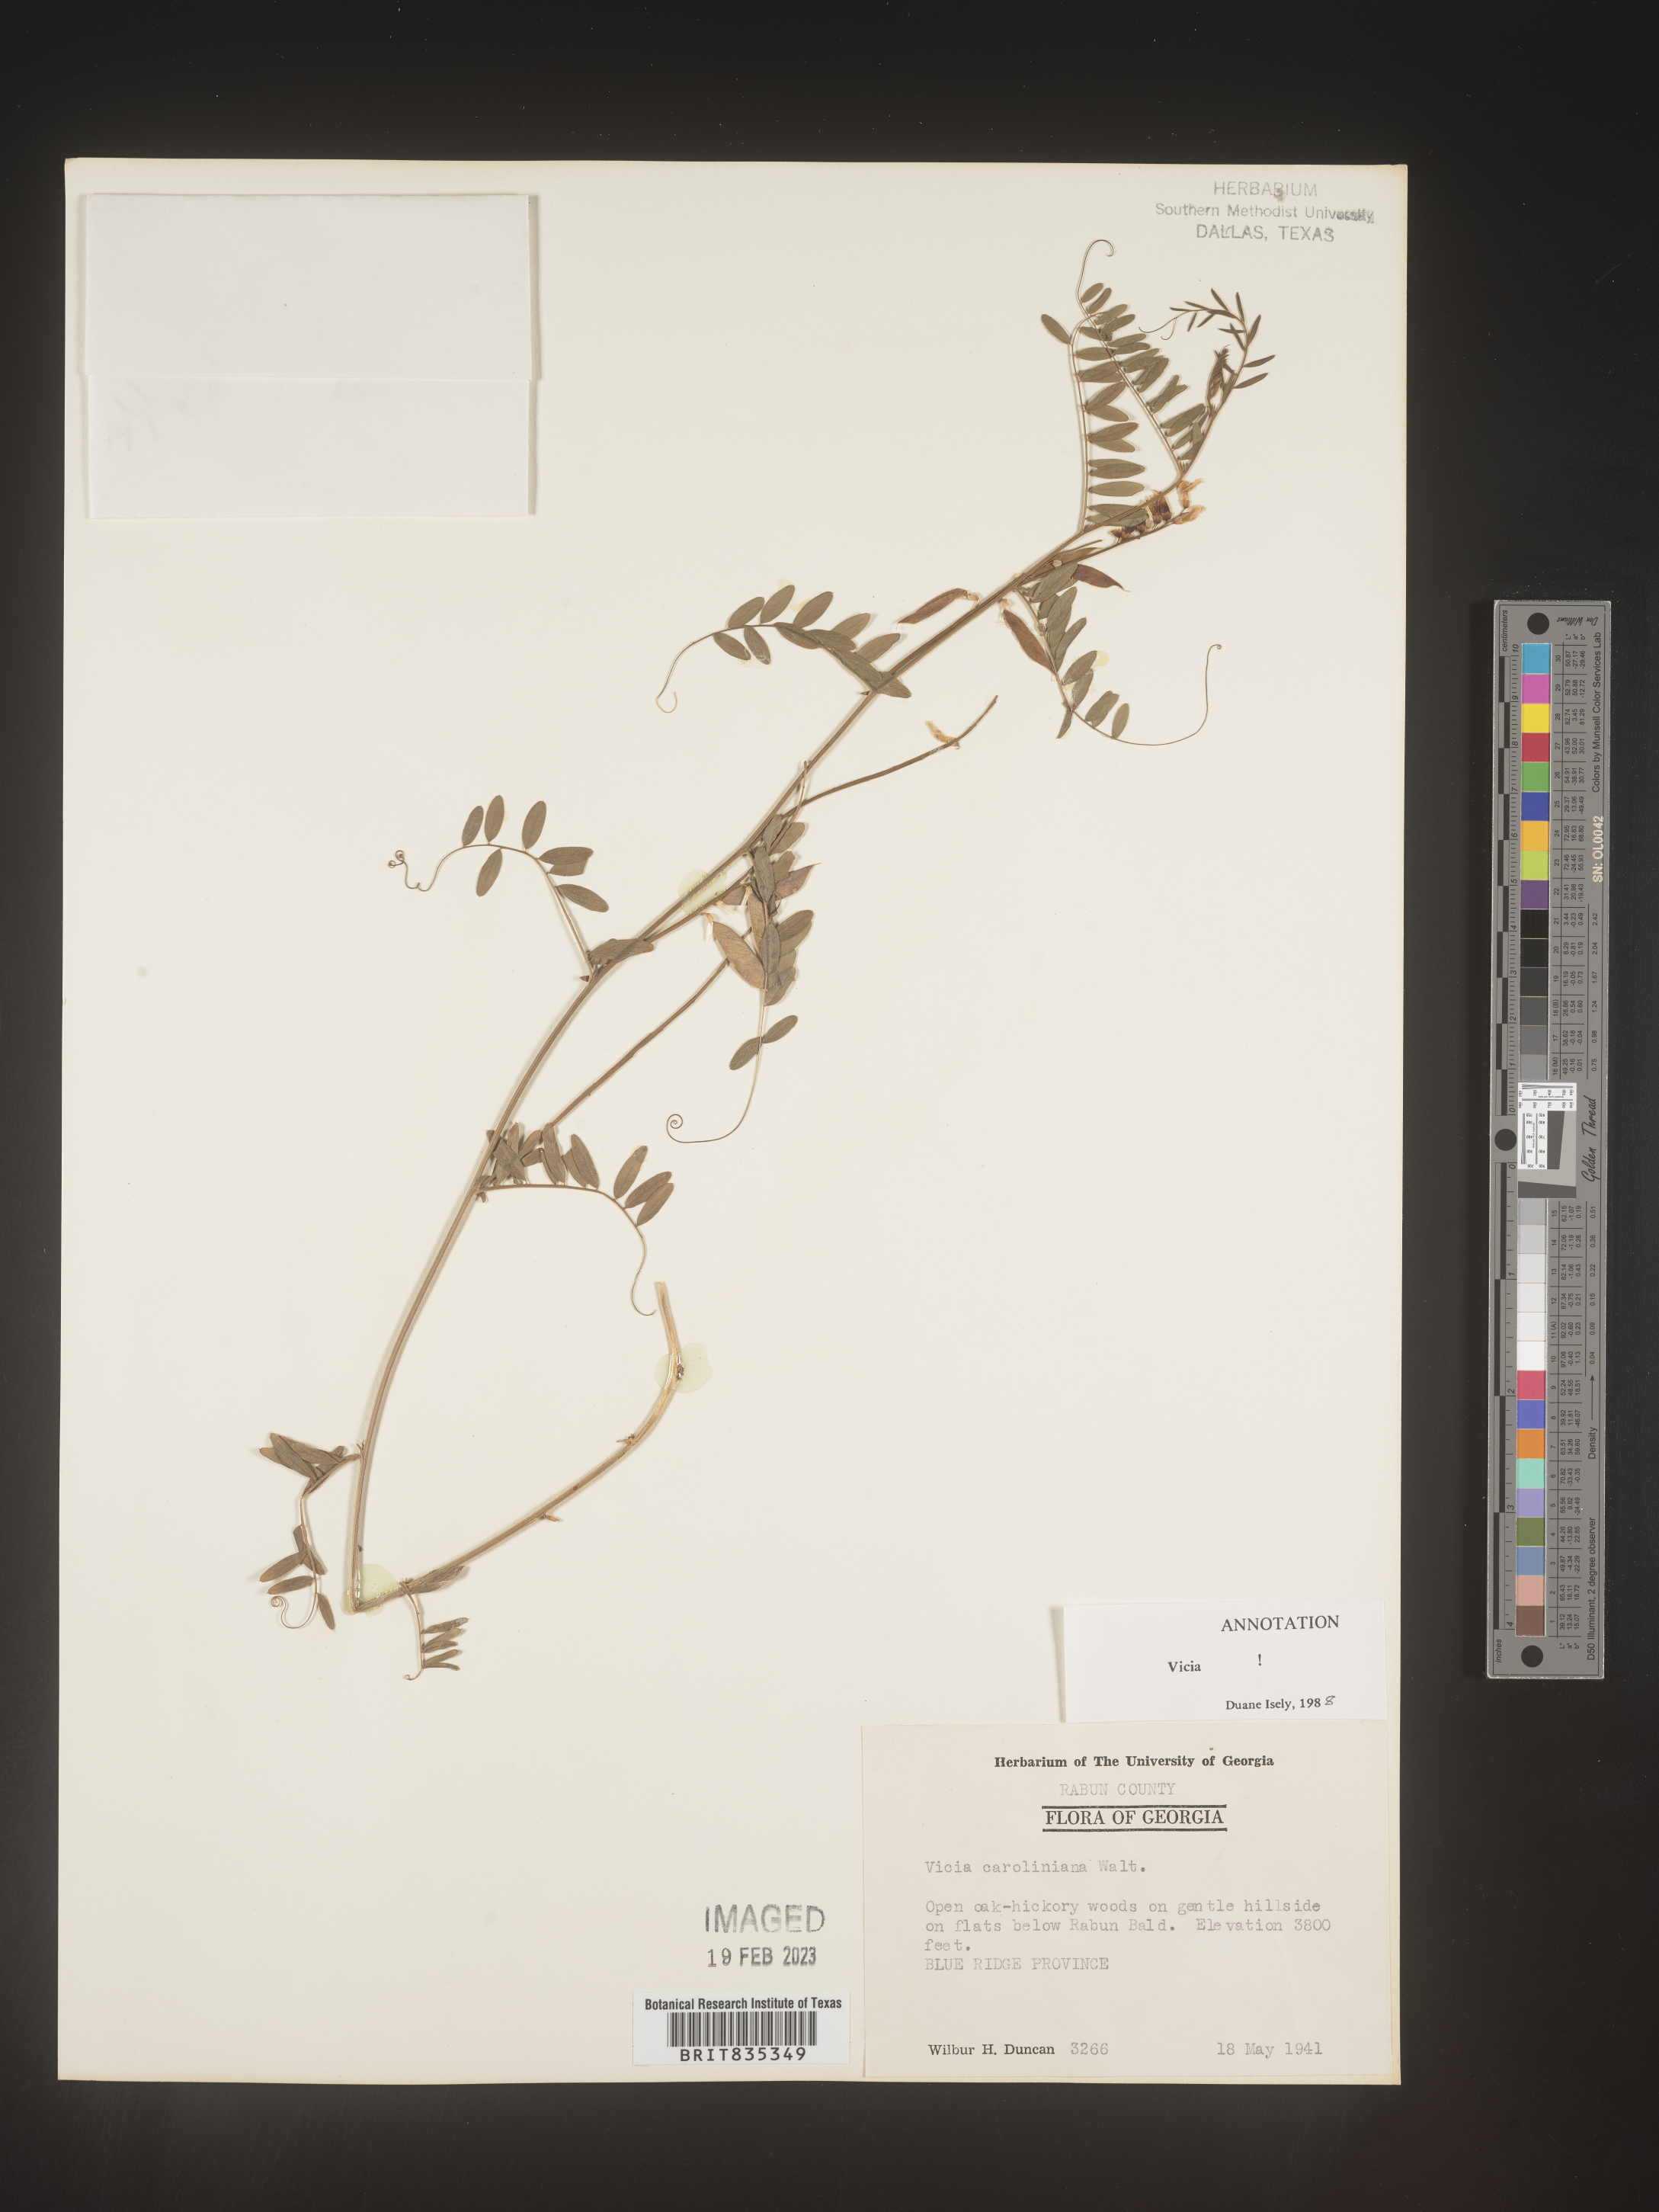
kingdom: Plantae
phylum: Tracheophyta
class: Magnoliopsida
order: Fabales
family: Fabaceae
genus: Vicia
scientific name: Vicia caroliniana
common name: Carolina vetch
